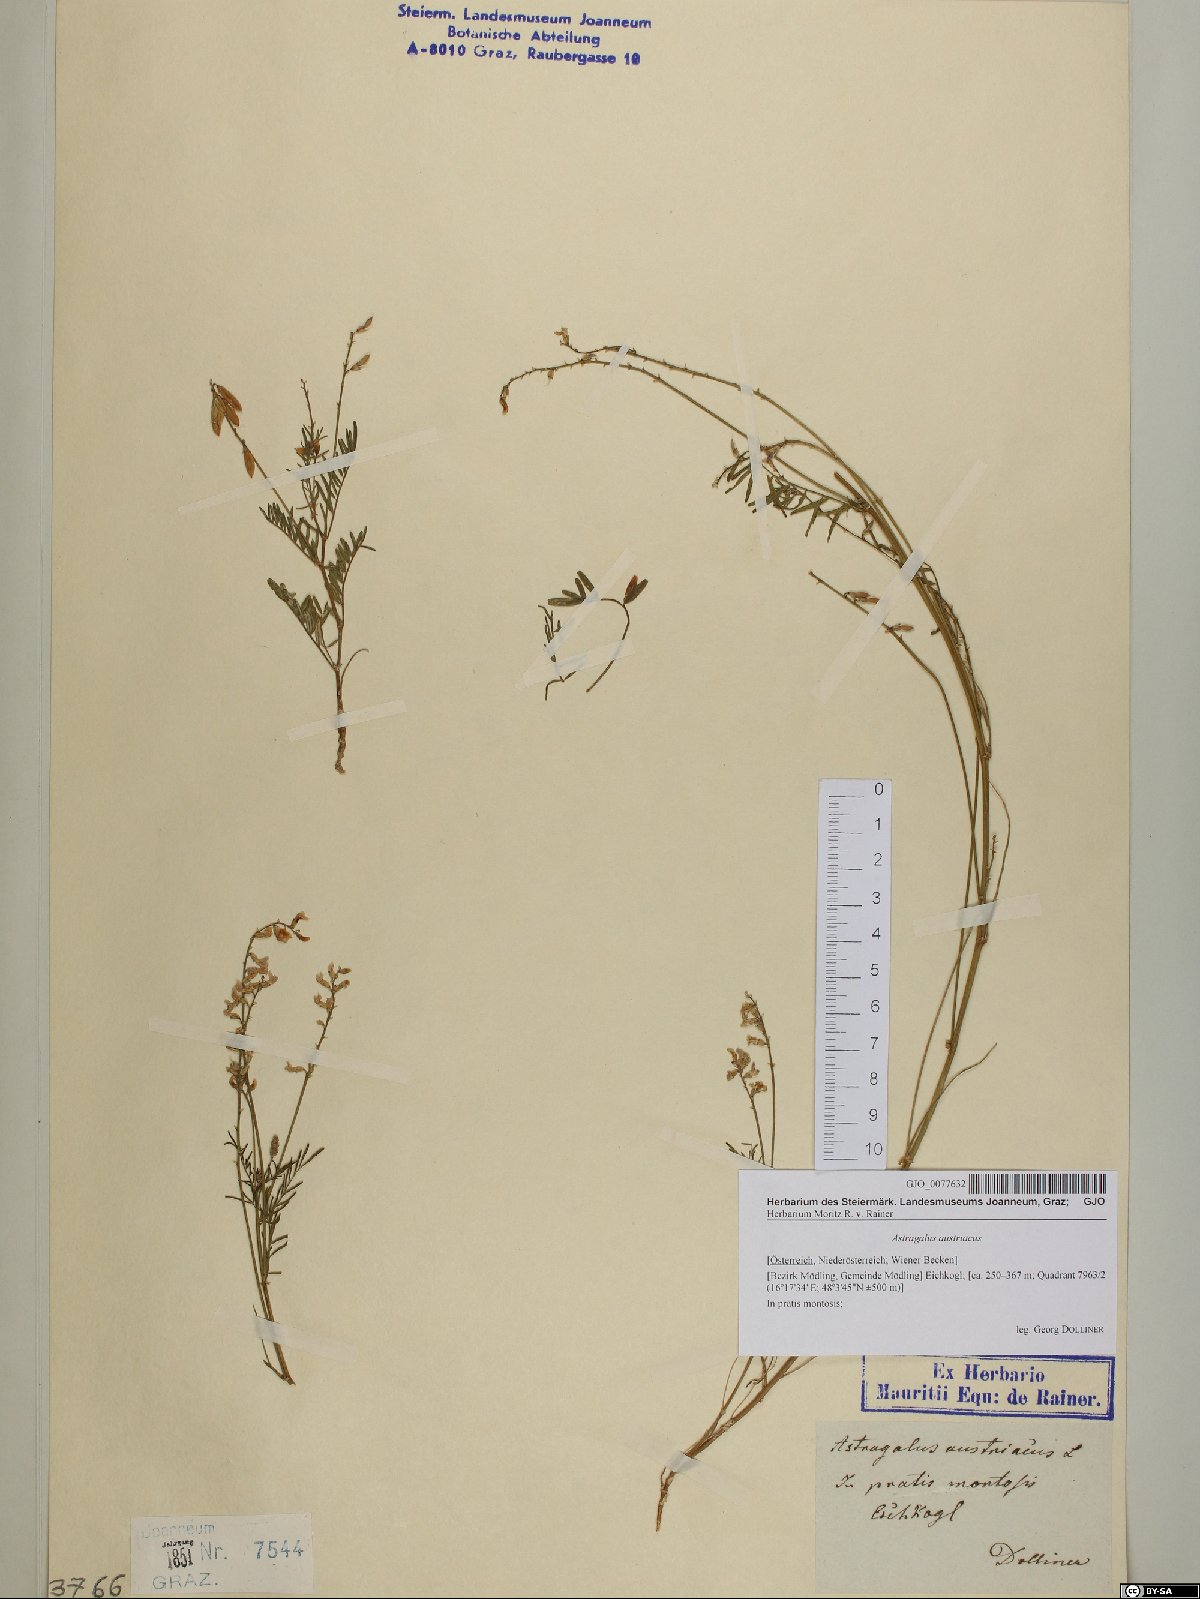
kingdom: Plantae
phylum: Tracheophyta
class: Magnoliopsida
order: Fabales
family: Fabaceae
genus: Astragalus
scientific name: Astragalus austriacus
